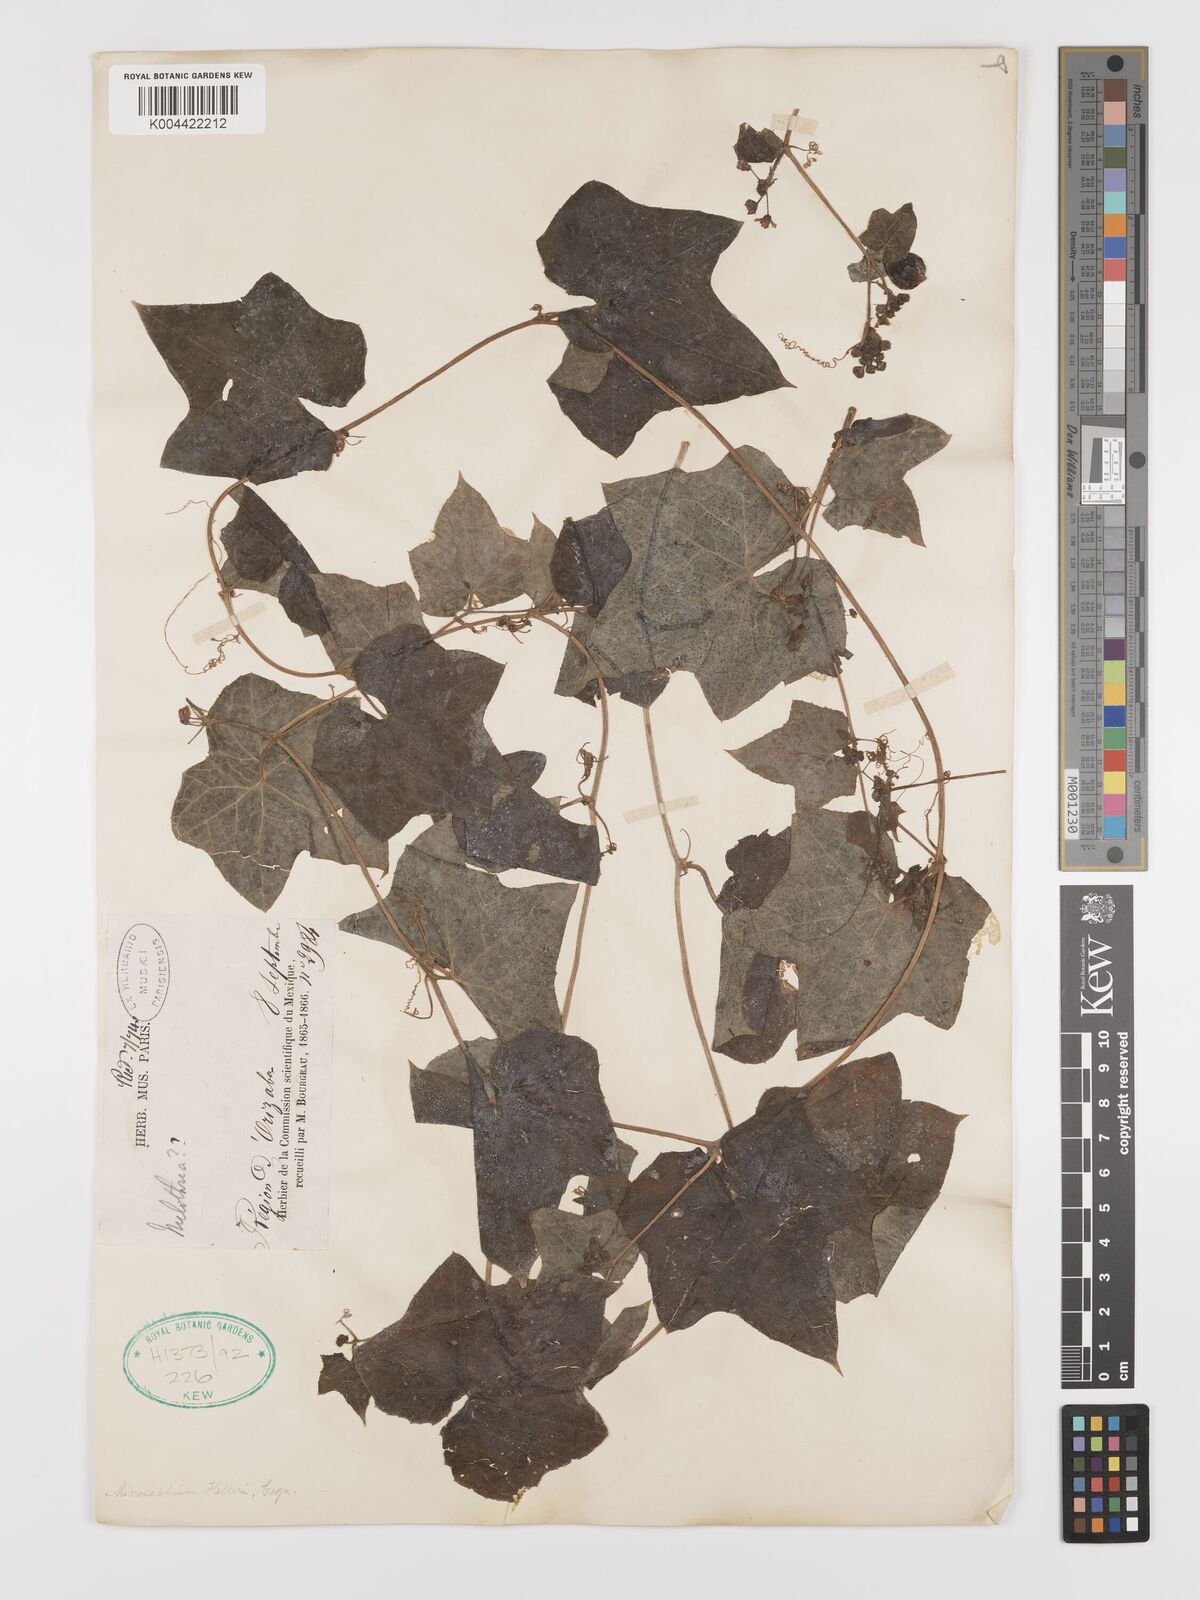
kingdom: Plantae
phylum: Tracheophyta
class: Magnoliopsida
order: Cucurbitales
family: Cucurbitaceae
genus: Microsechium
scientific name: Microsechium palmatum
